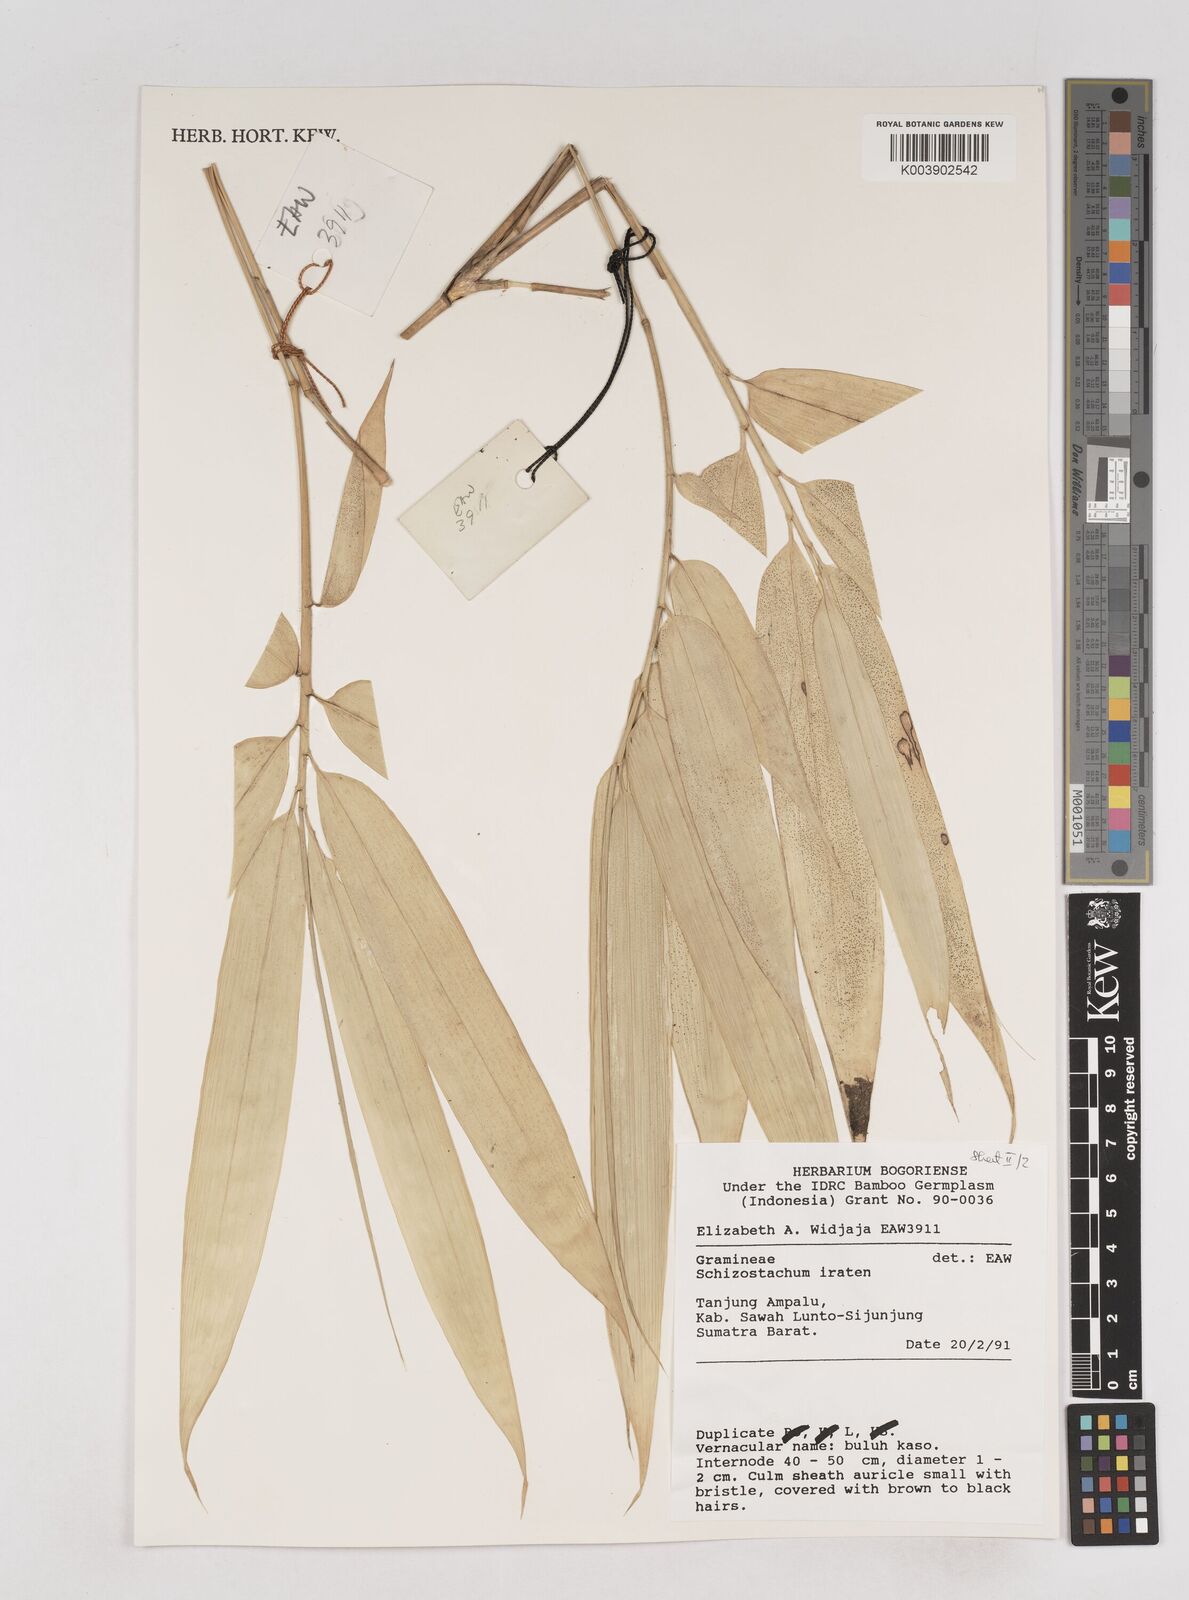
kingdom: Plantae
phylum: Tracheophyta
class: Liliopsida
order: Poales
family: Poaceae
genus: Schizostachyum
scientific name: Schizostachyum iraten
